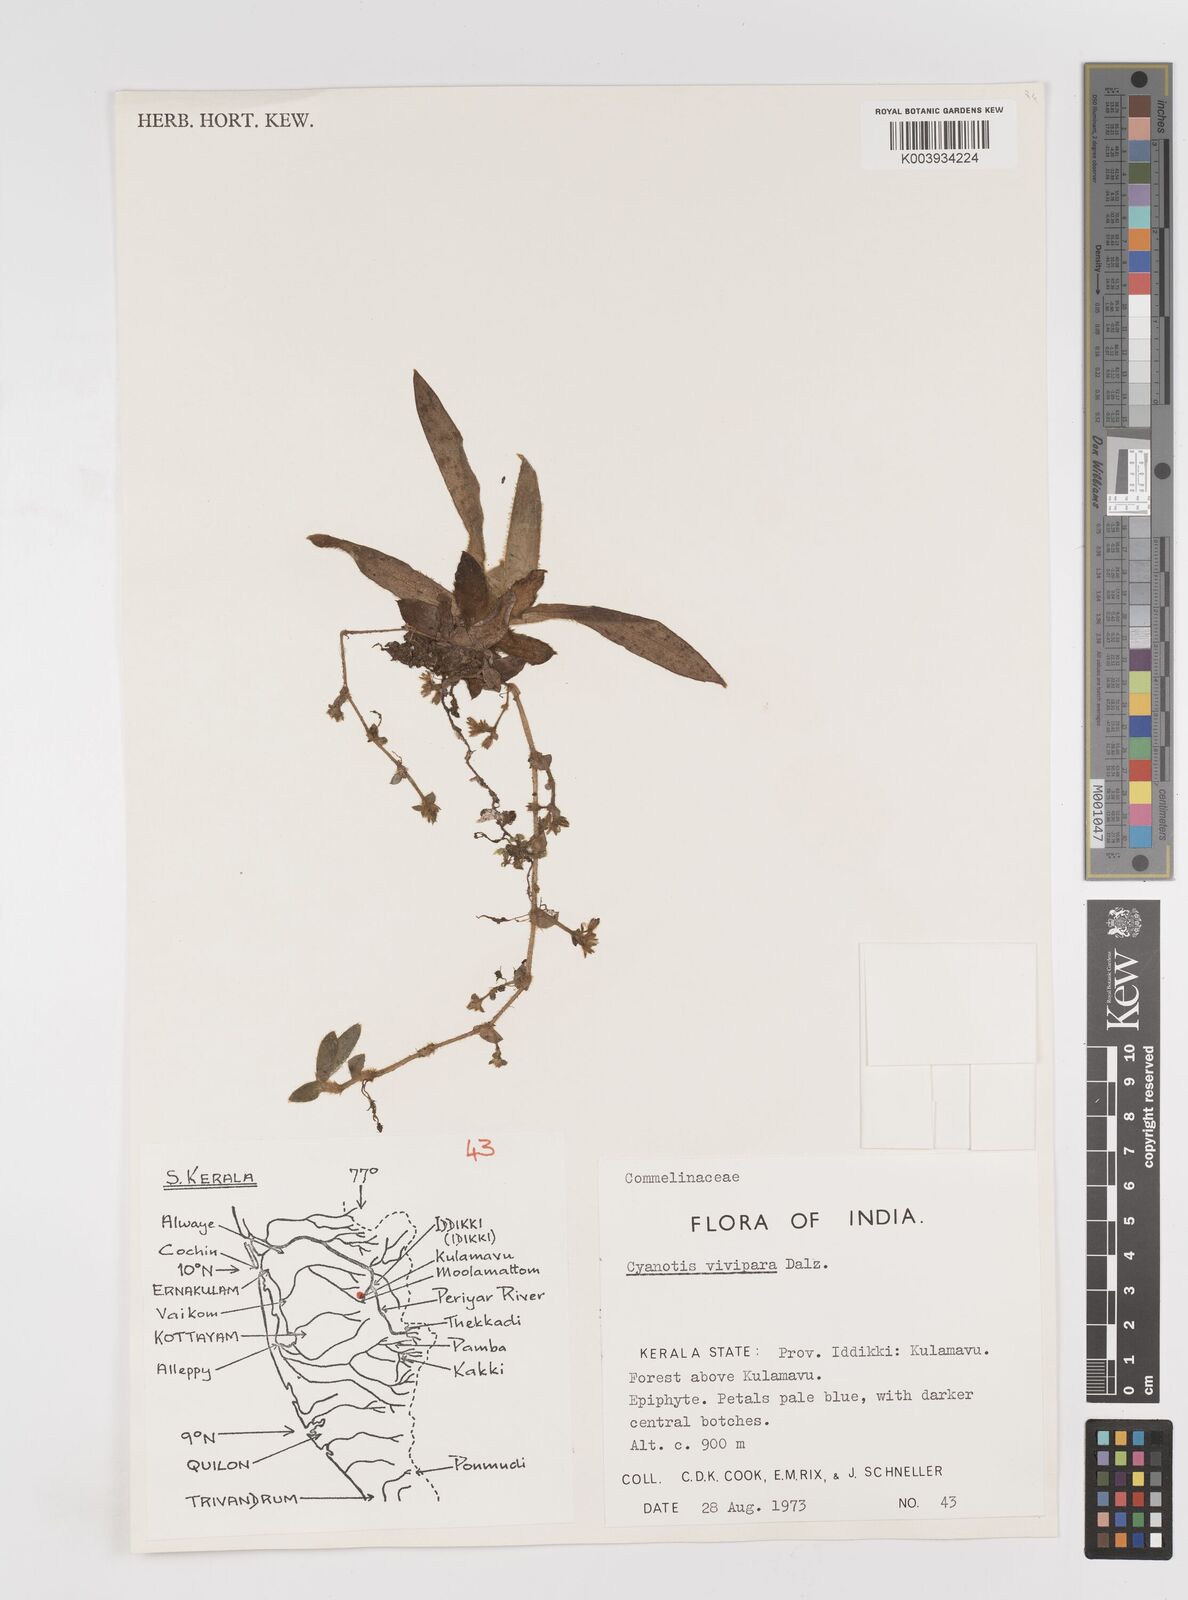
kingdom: Plantae
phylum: Tracheophyta
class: Liliopsida
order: Commelinales
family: Commelinaceae
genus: Cyanotis
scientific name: Cyanotis vivipara
